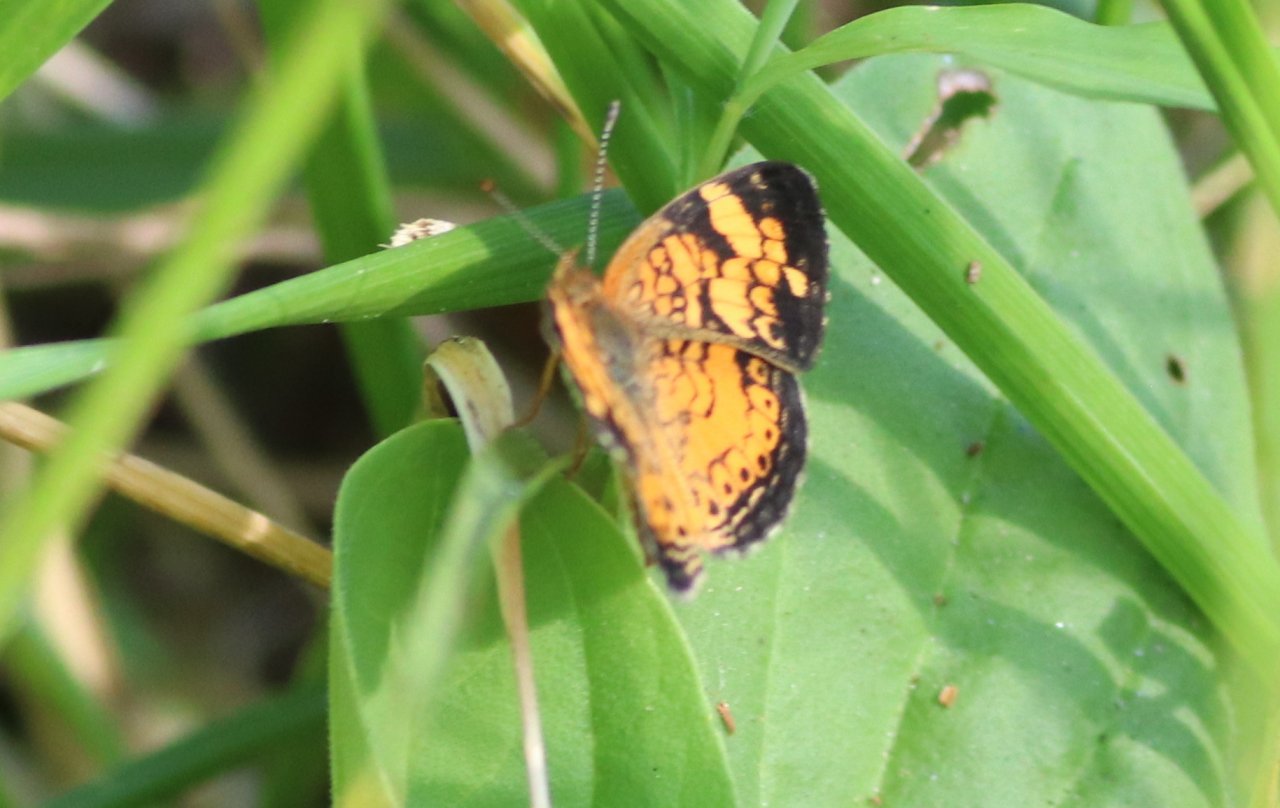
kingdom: Animalia
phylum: Arthropoda
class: Insecta
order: Lepidoptera
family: Nymphalidae
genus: Phyciodes
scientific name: Phyciodes tharos
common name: Pearl Crescent
